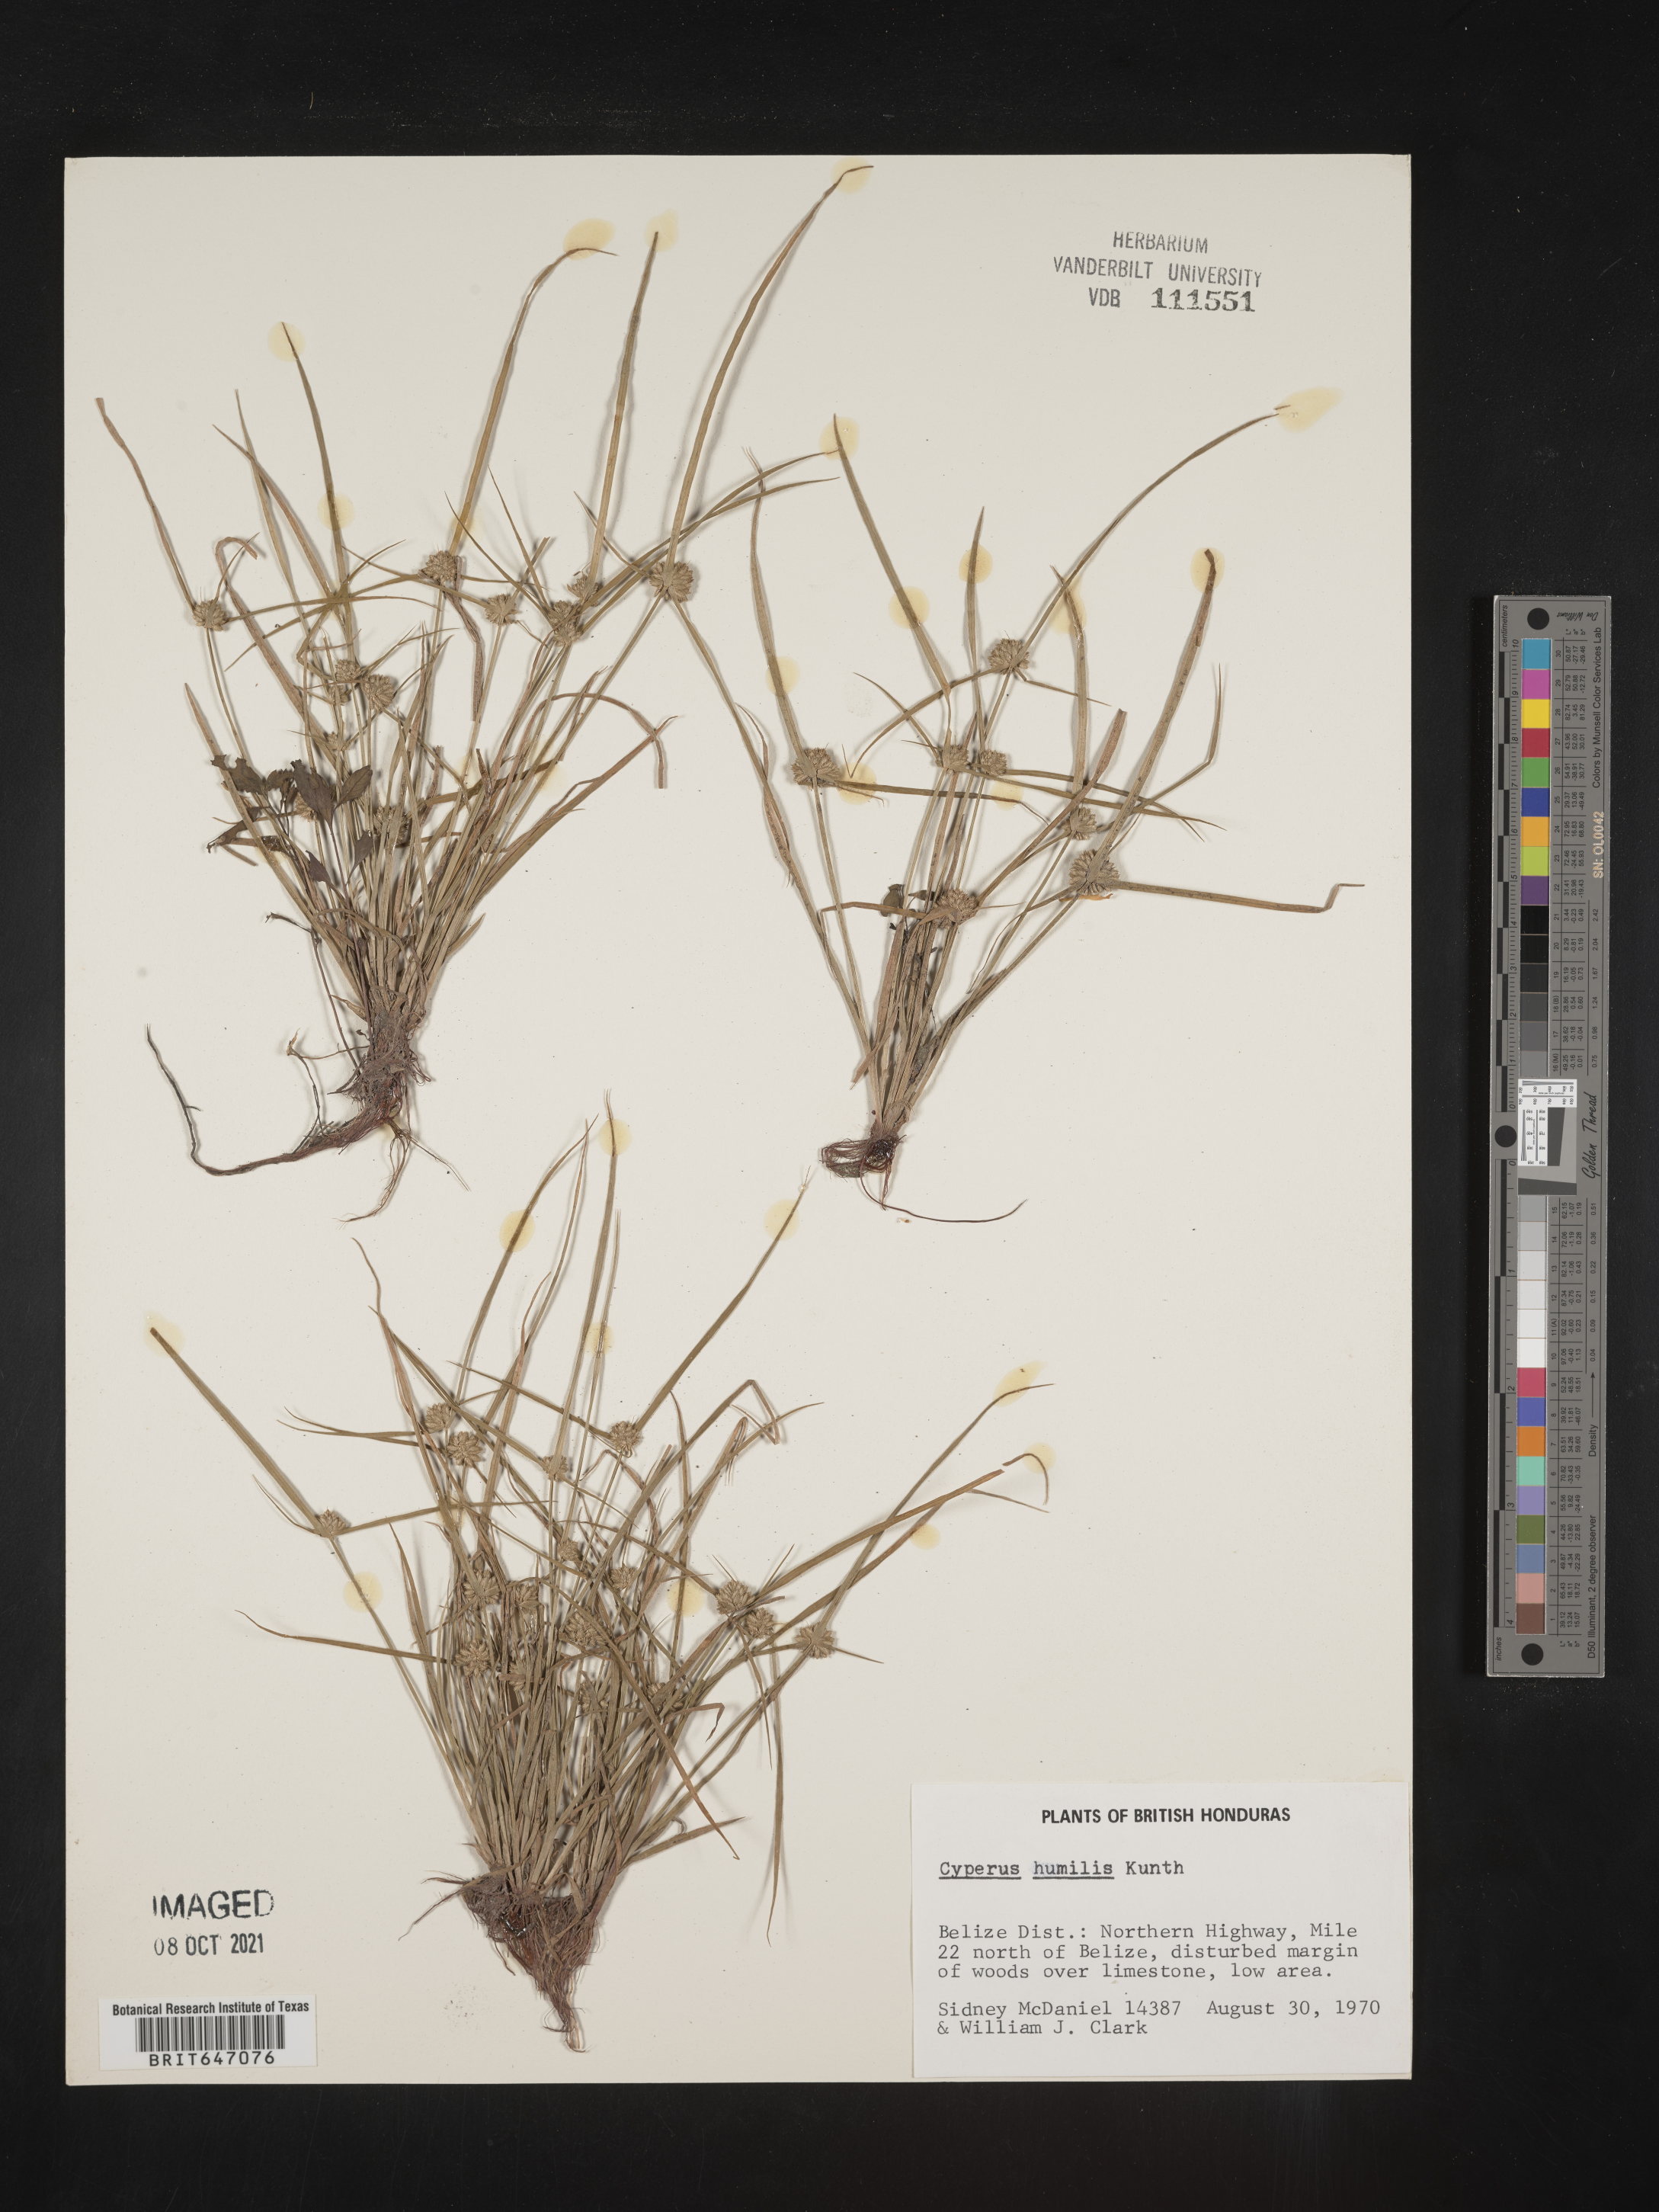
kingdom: Plantae
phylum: Tracheophyta
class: Liliopsida
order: Poales
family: Cyperaceae
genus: Cyperus
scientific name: Cyperus humilis
